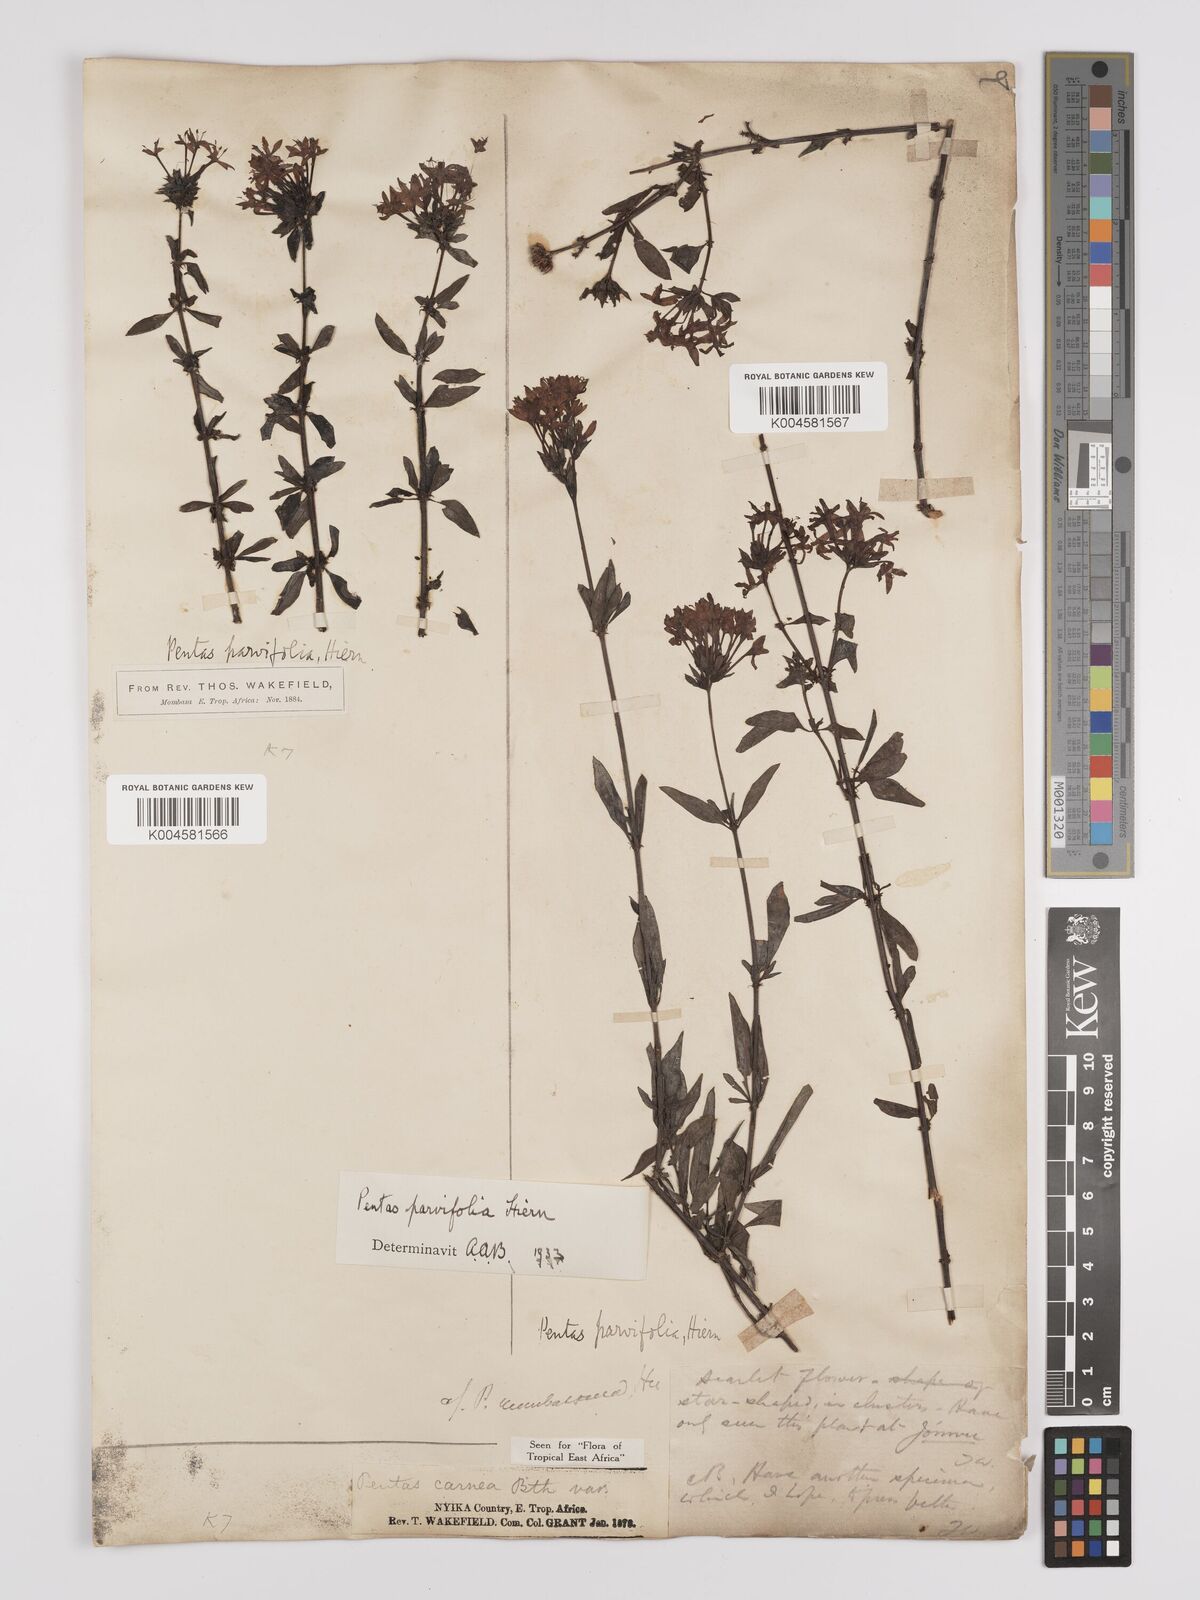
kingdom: Plantae
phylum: Tracheophyta
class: Magnoliopsida
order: Gentianales
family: Rubiaceae
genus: Rhodopentas
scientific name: Rhodopentas parvifolia
